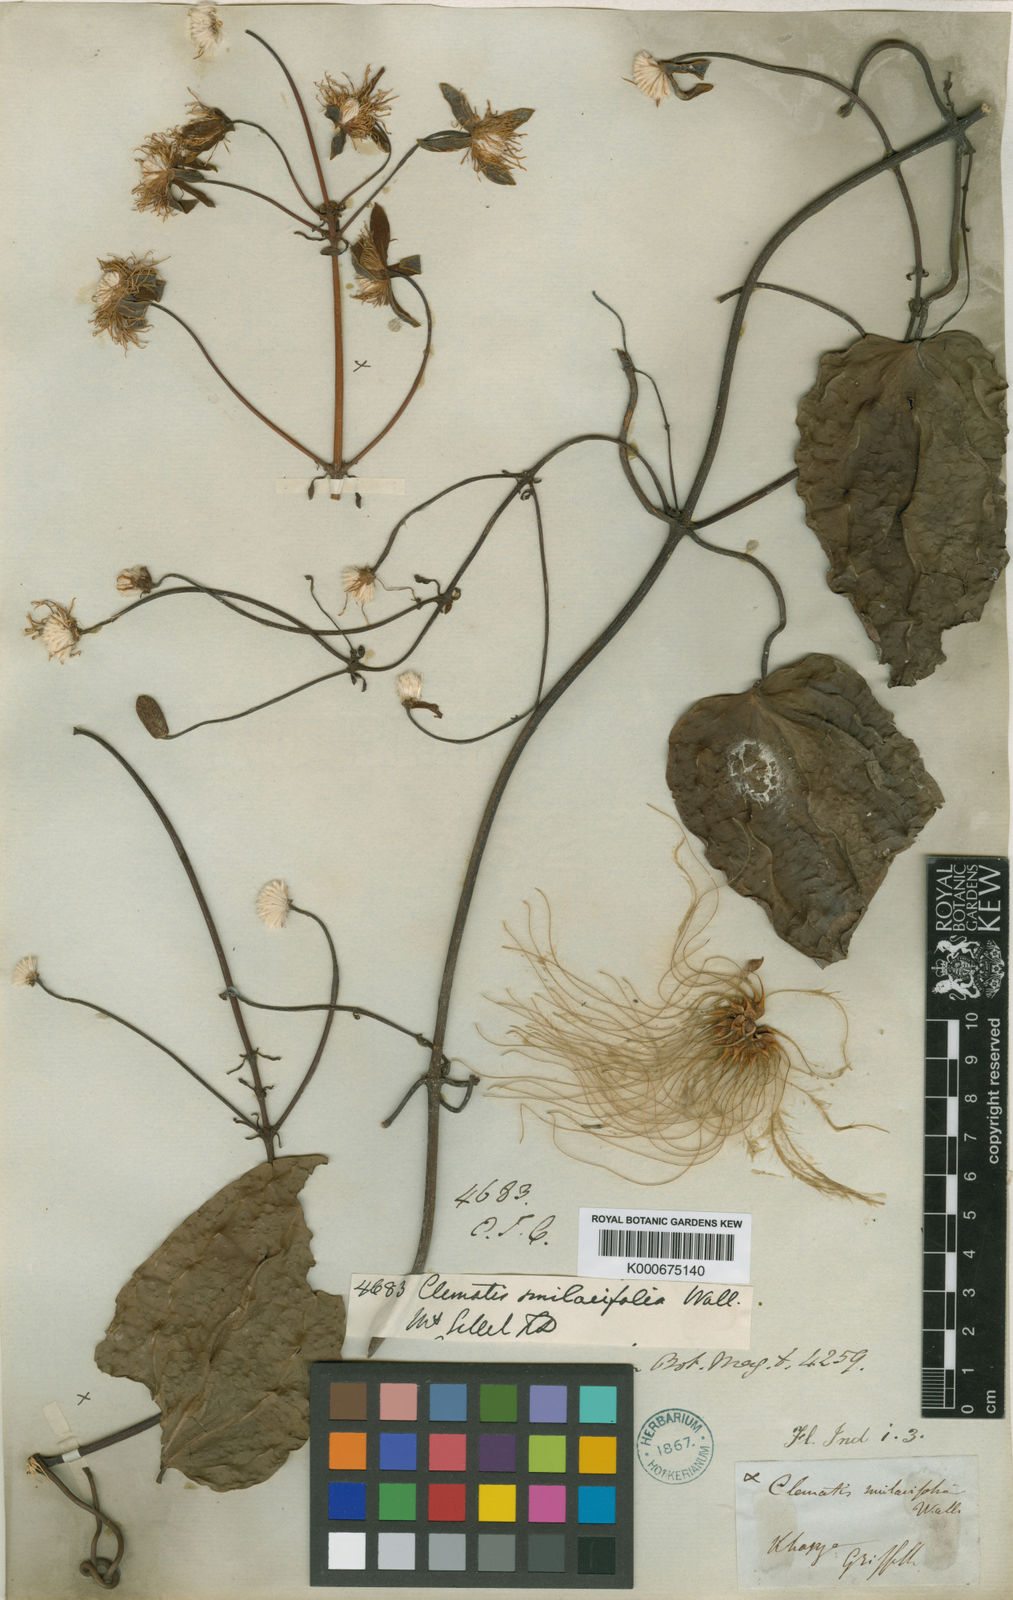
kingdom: Plantae
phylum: Tracheophyta
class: Magnoliopsida
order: Ranunculales
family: Ranunculaceae
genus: Clematis
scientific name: Clematis smilacifolia
